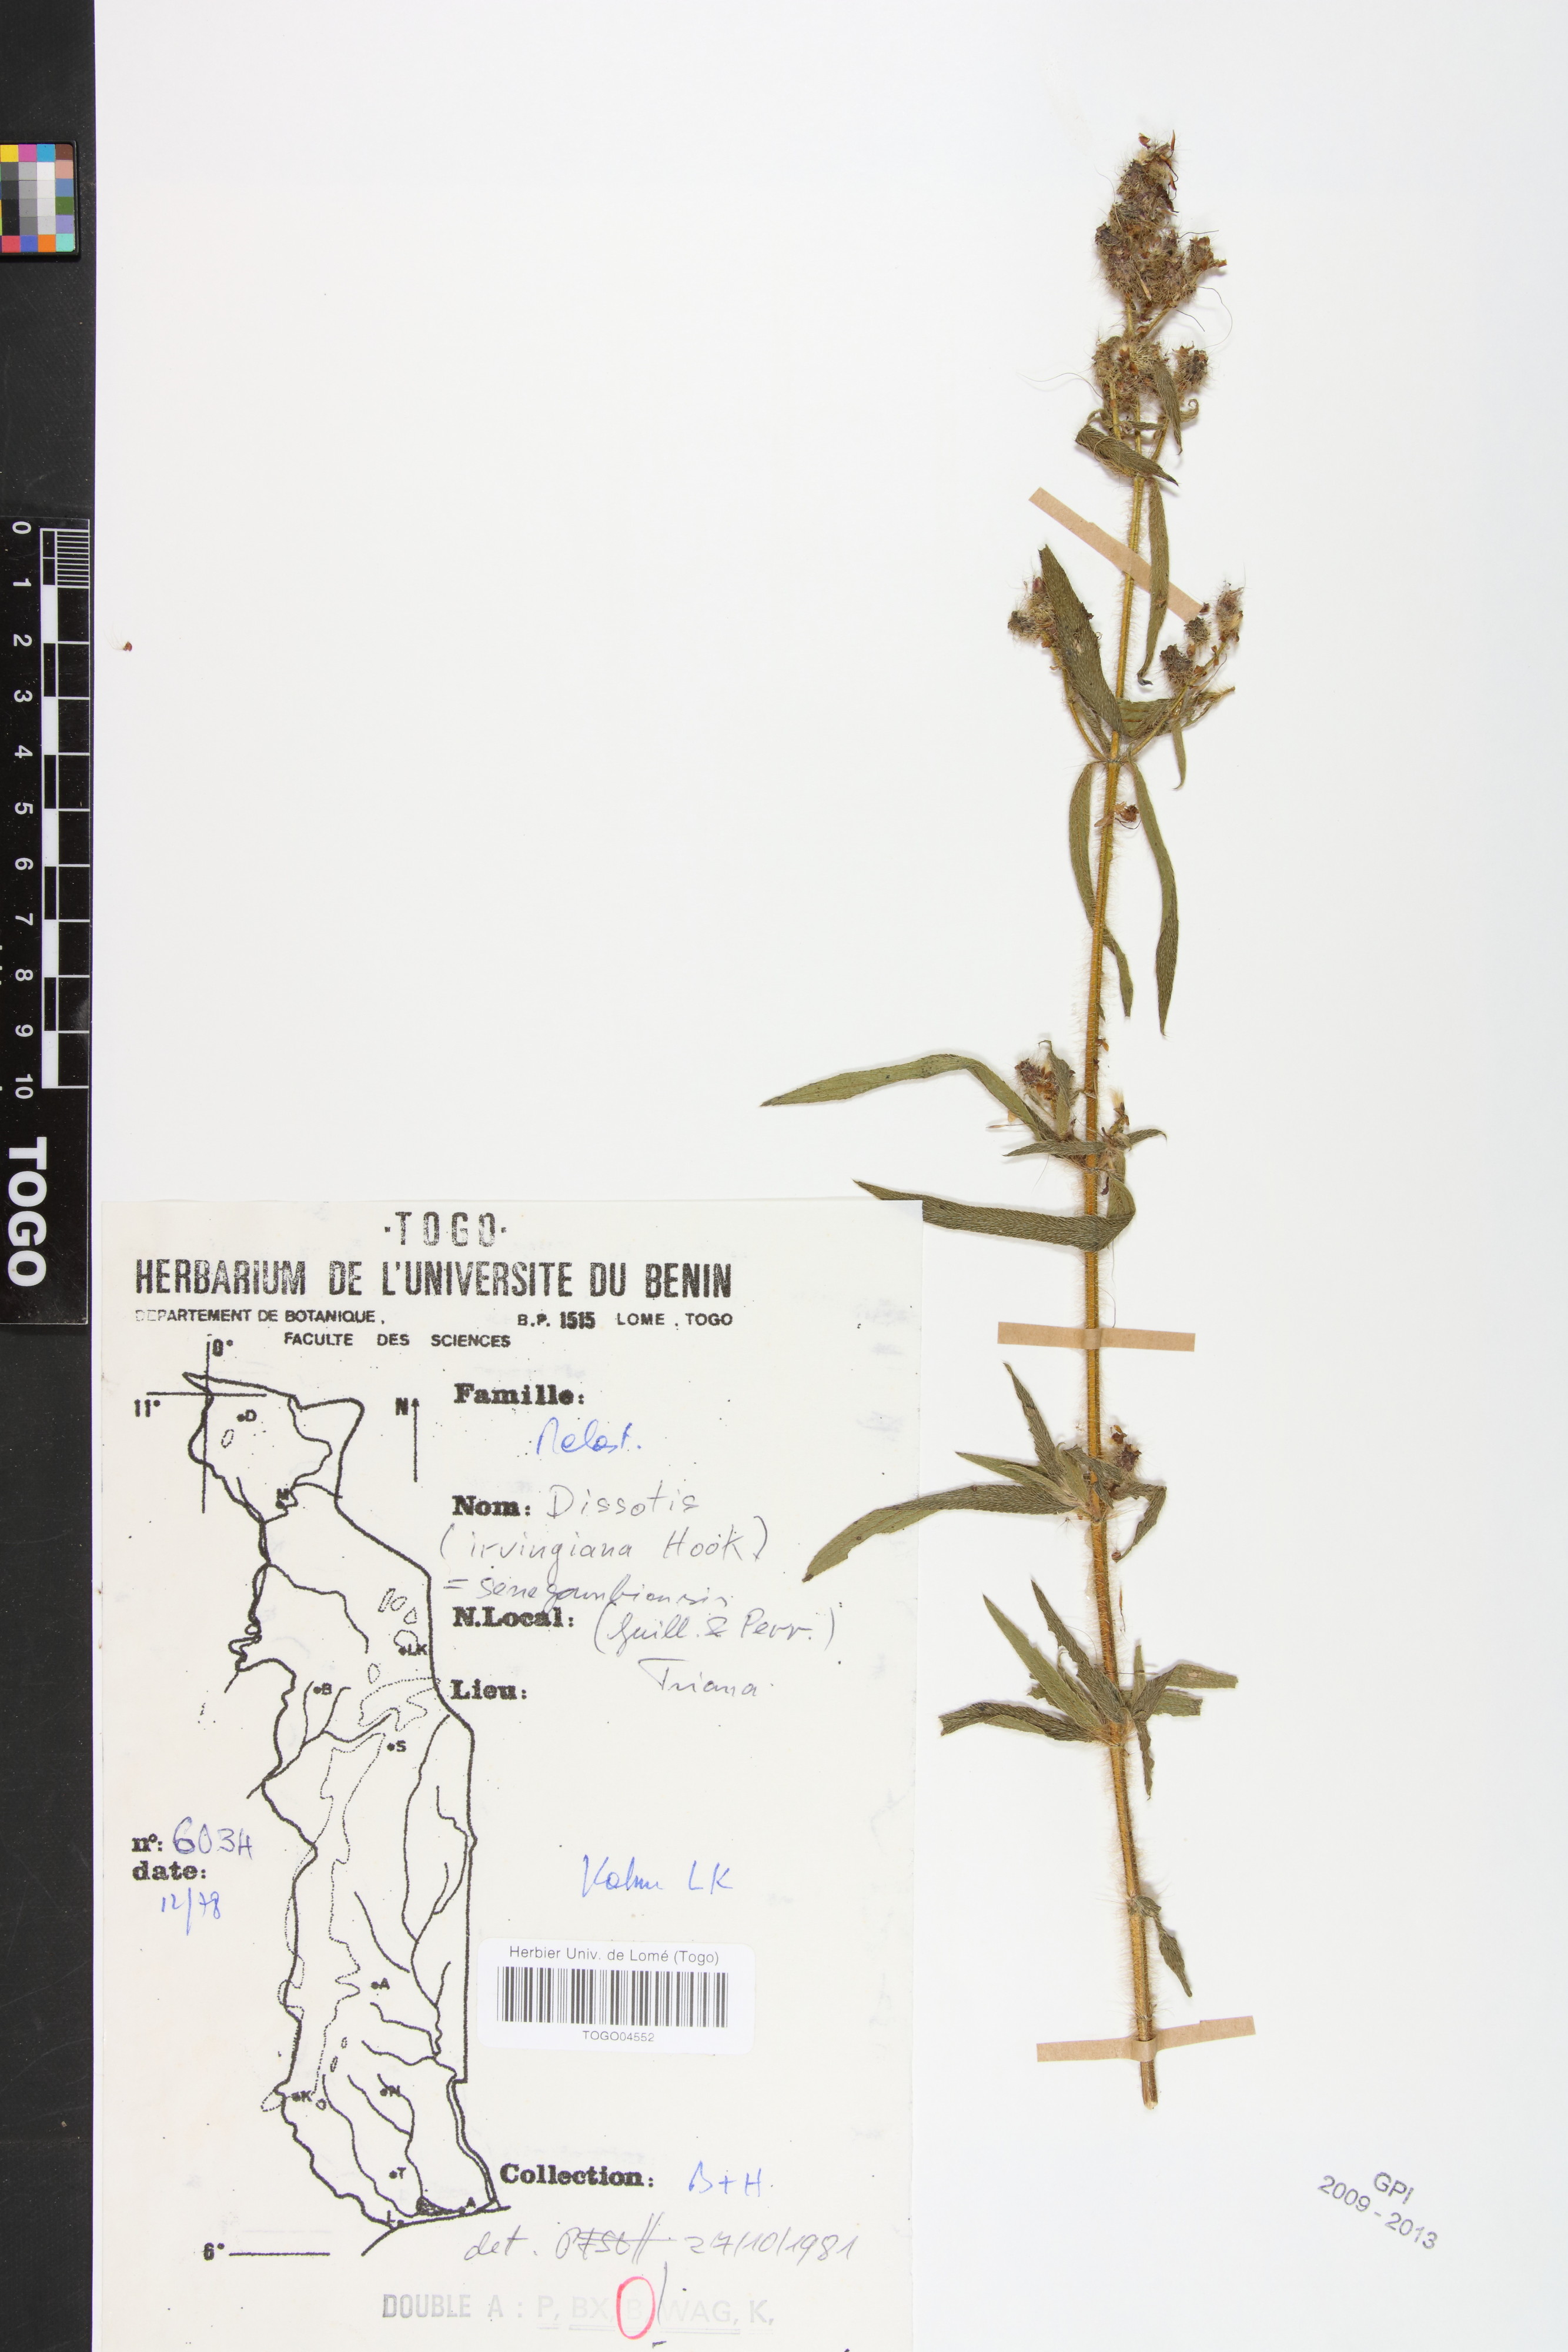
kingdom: Plantae
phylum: Tracheophyta
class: Magnoliopsida
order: Myrtales
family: Melastomataceae
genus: Antherotoma
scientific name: Antherotoma irvingiana
